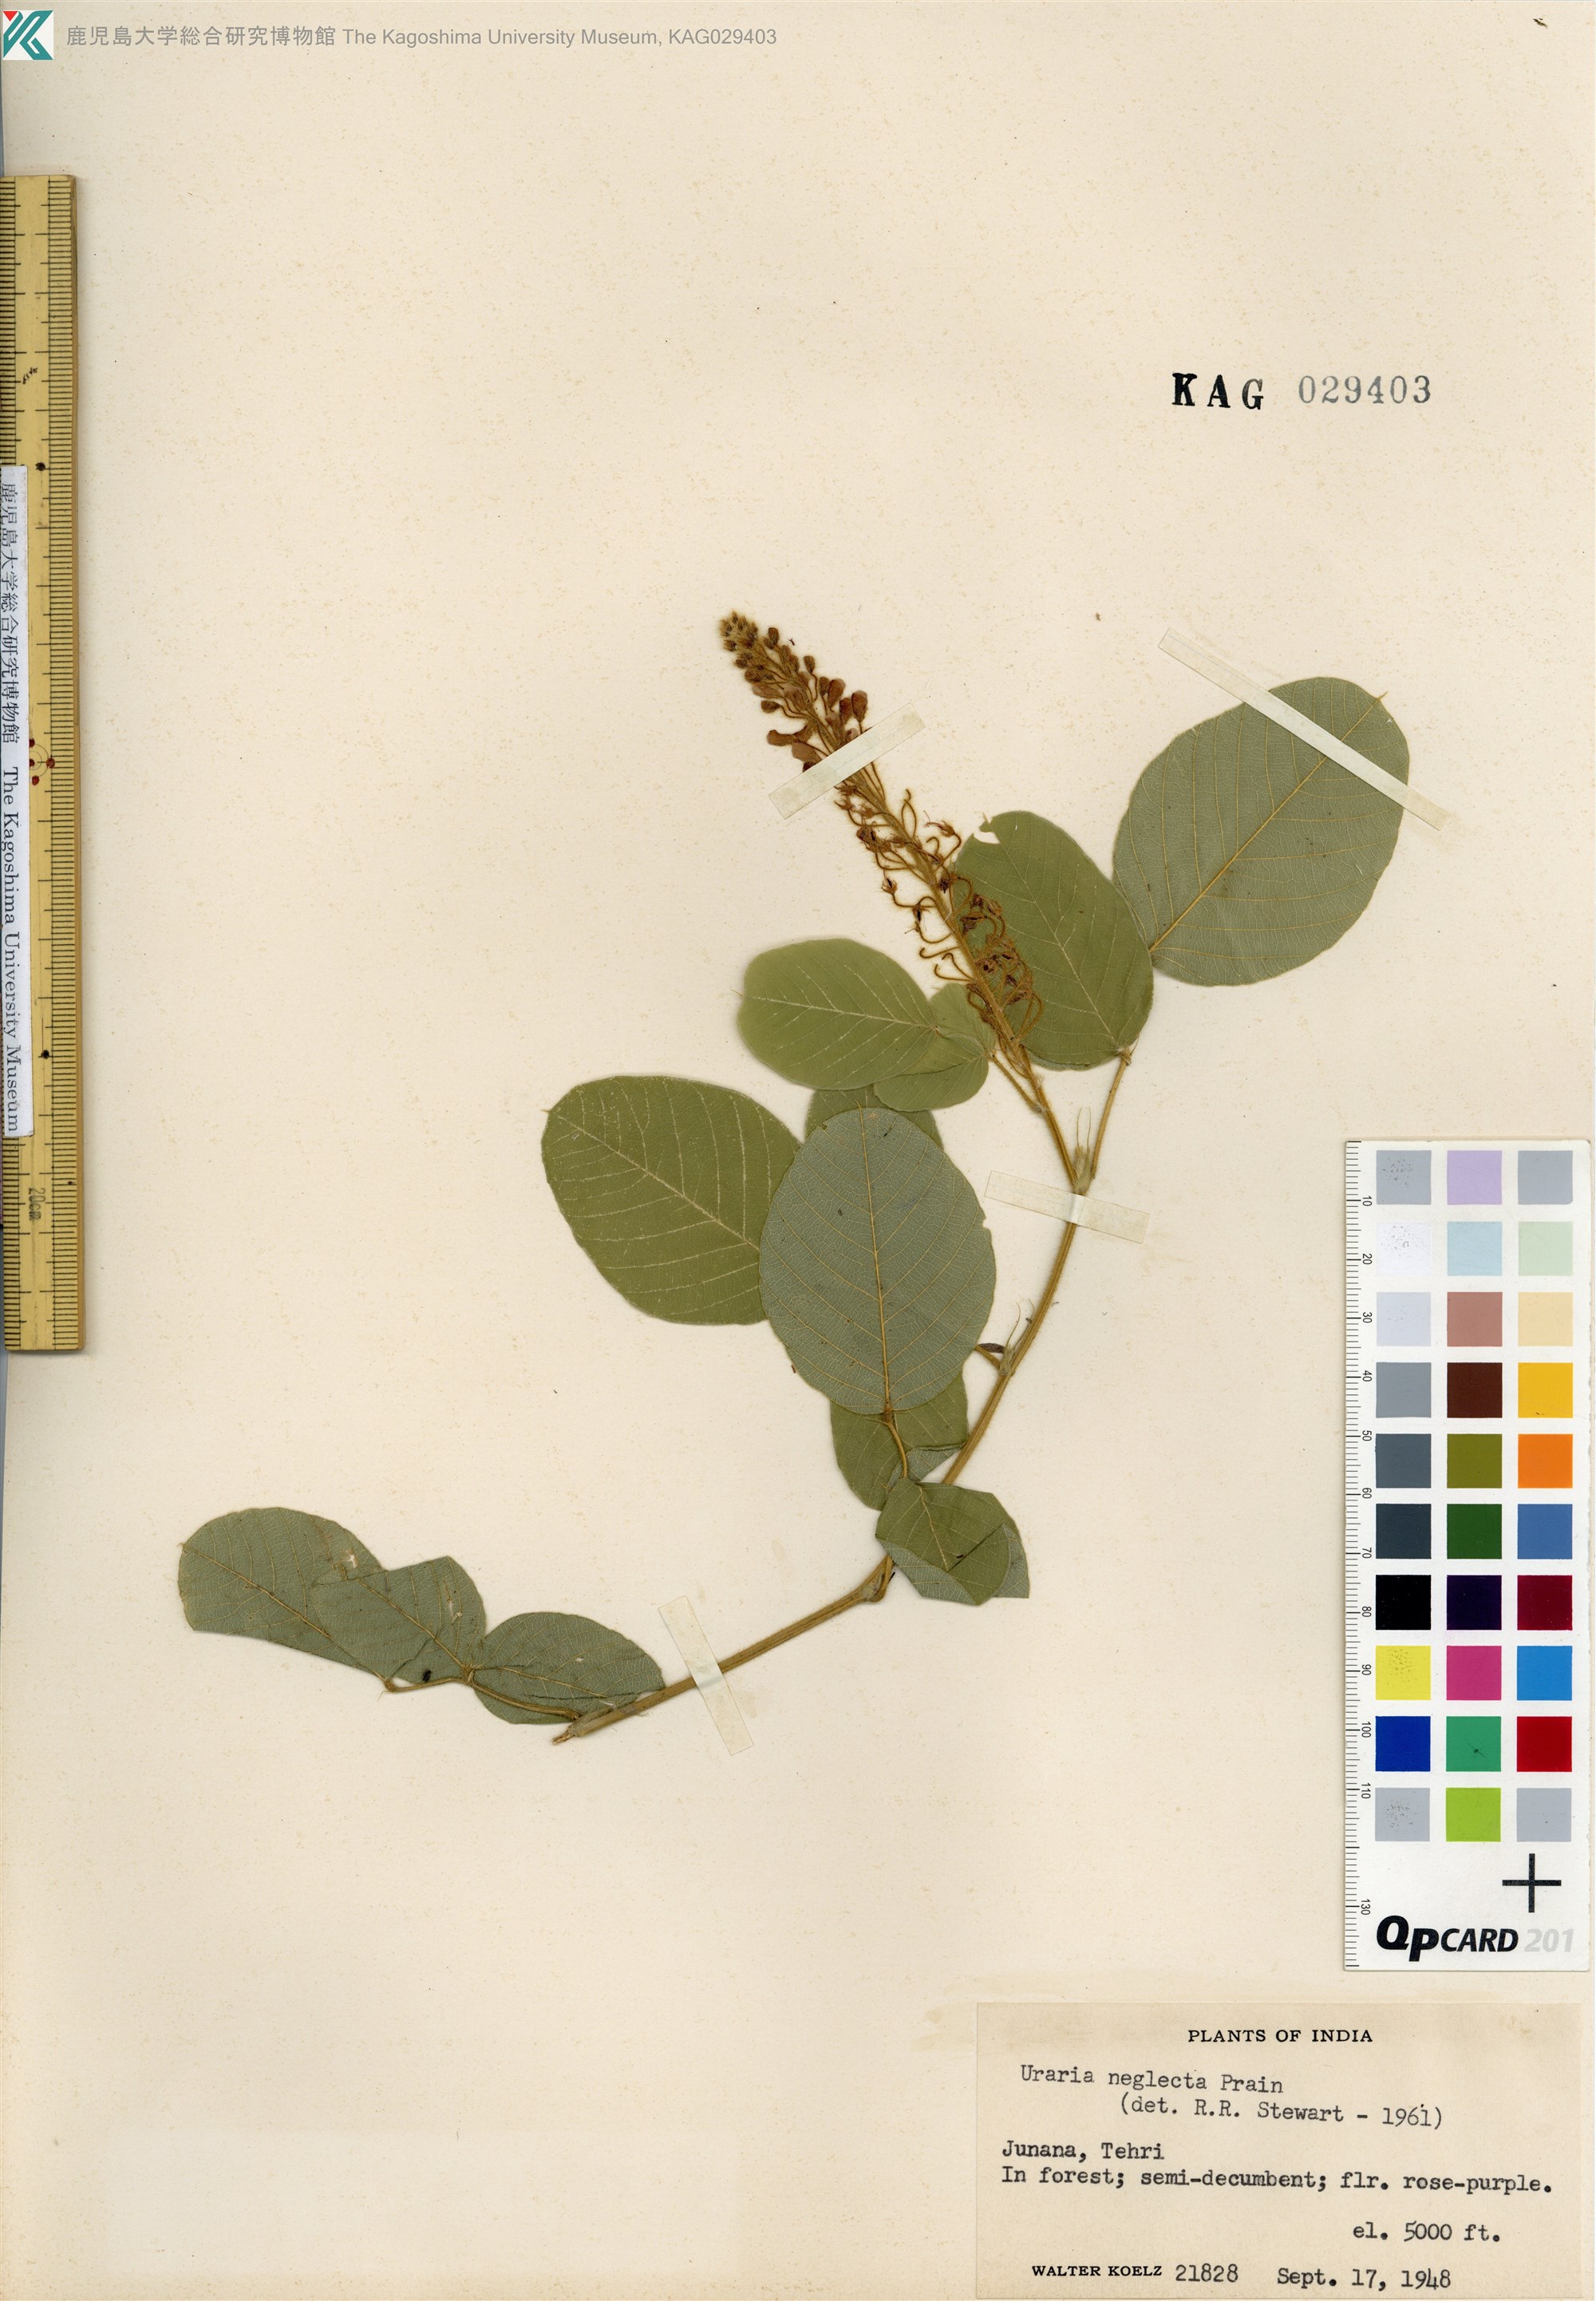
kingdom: Plantae
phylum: Tracheophyta
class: Magnoliopsida
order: Fabales
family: Fabaceae
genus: Uraria
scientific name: Uraria lagopus
